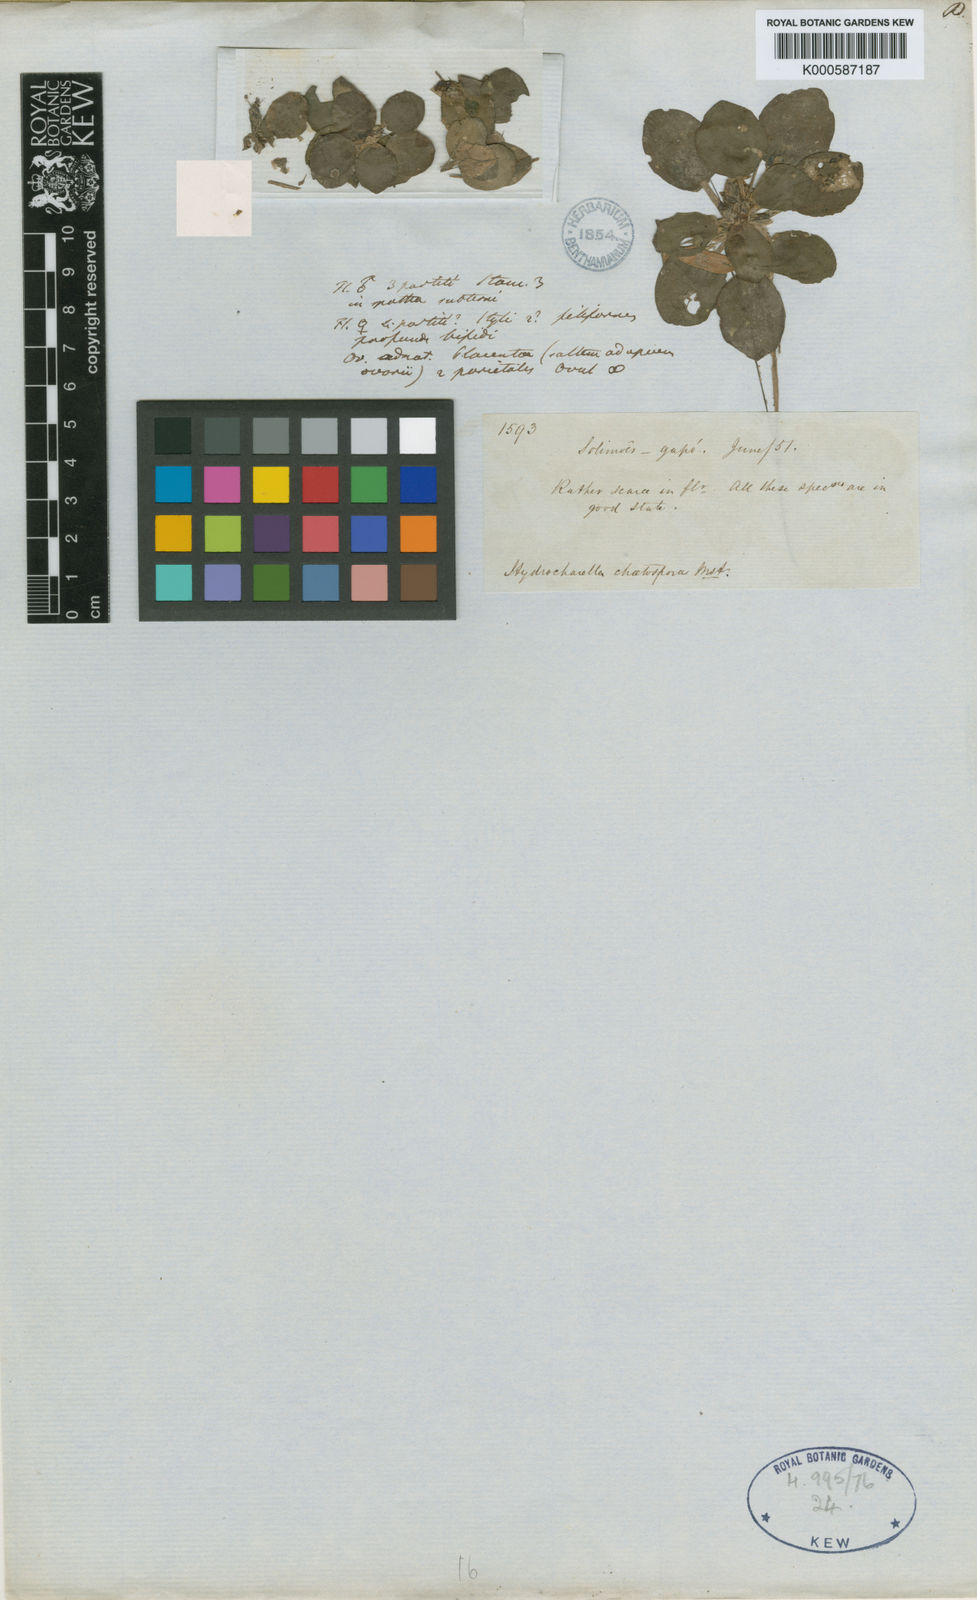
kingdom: Plantae
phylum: Tracheophyta
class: Liliopsida
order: Alismatales
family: Hydrocharitaceae
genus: Hydrocharis
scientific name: Hydrocharis laevigata
